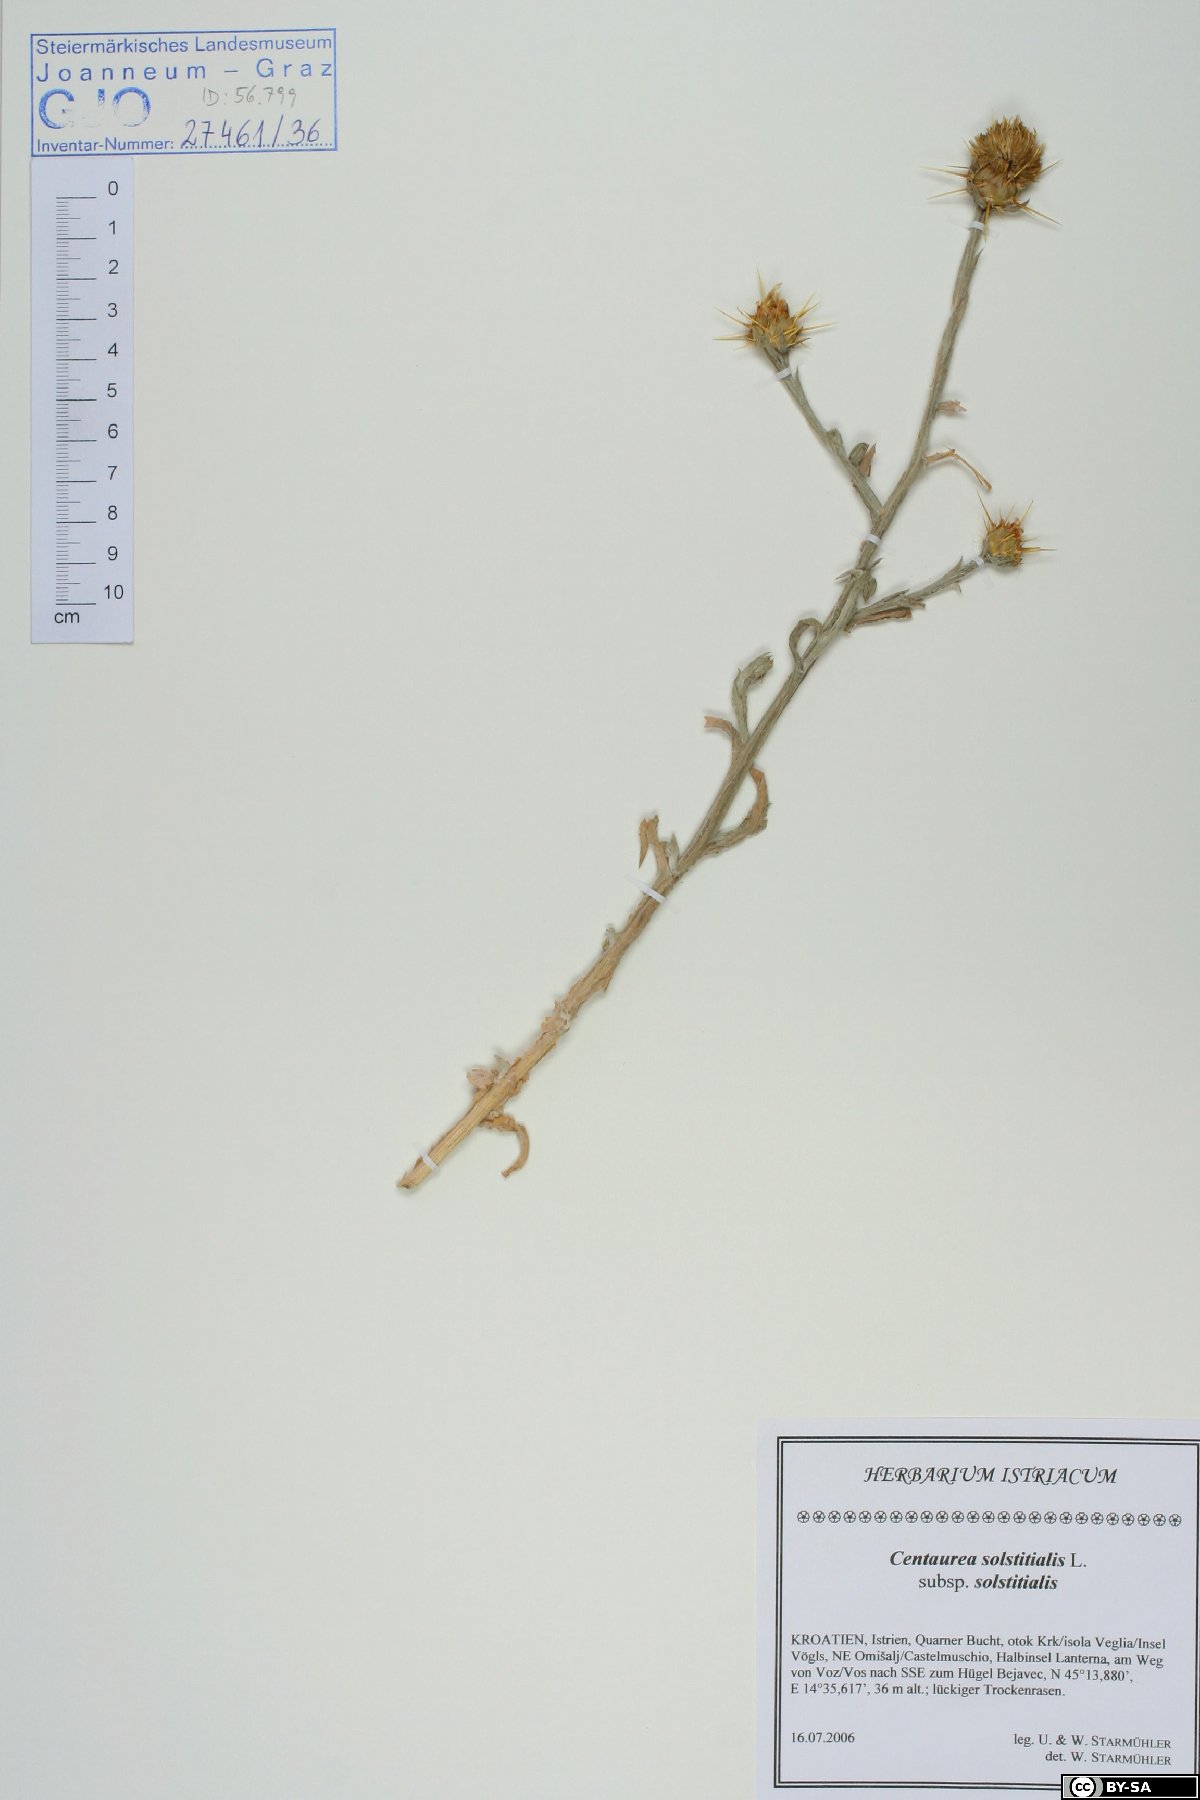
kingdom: Plantae
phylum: Tracheophyta
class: Magnoliopsida
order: Asterales
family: Asteraceae
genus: Centaurea
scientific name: Centaurea solstitialis
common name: Yellow star-thistle
